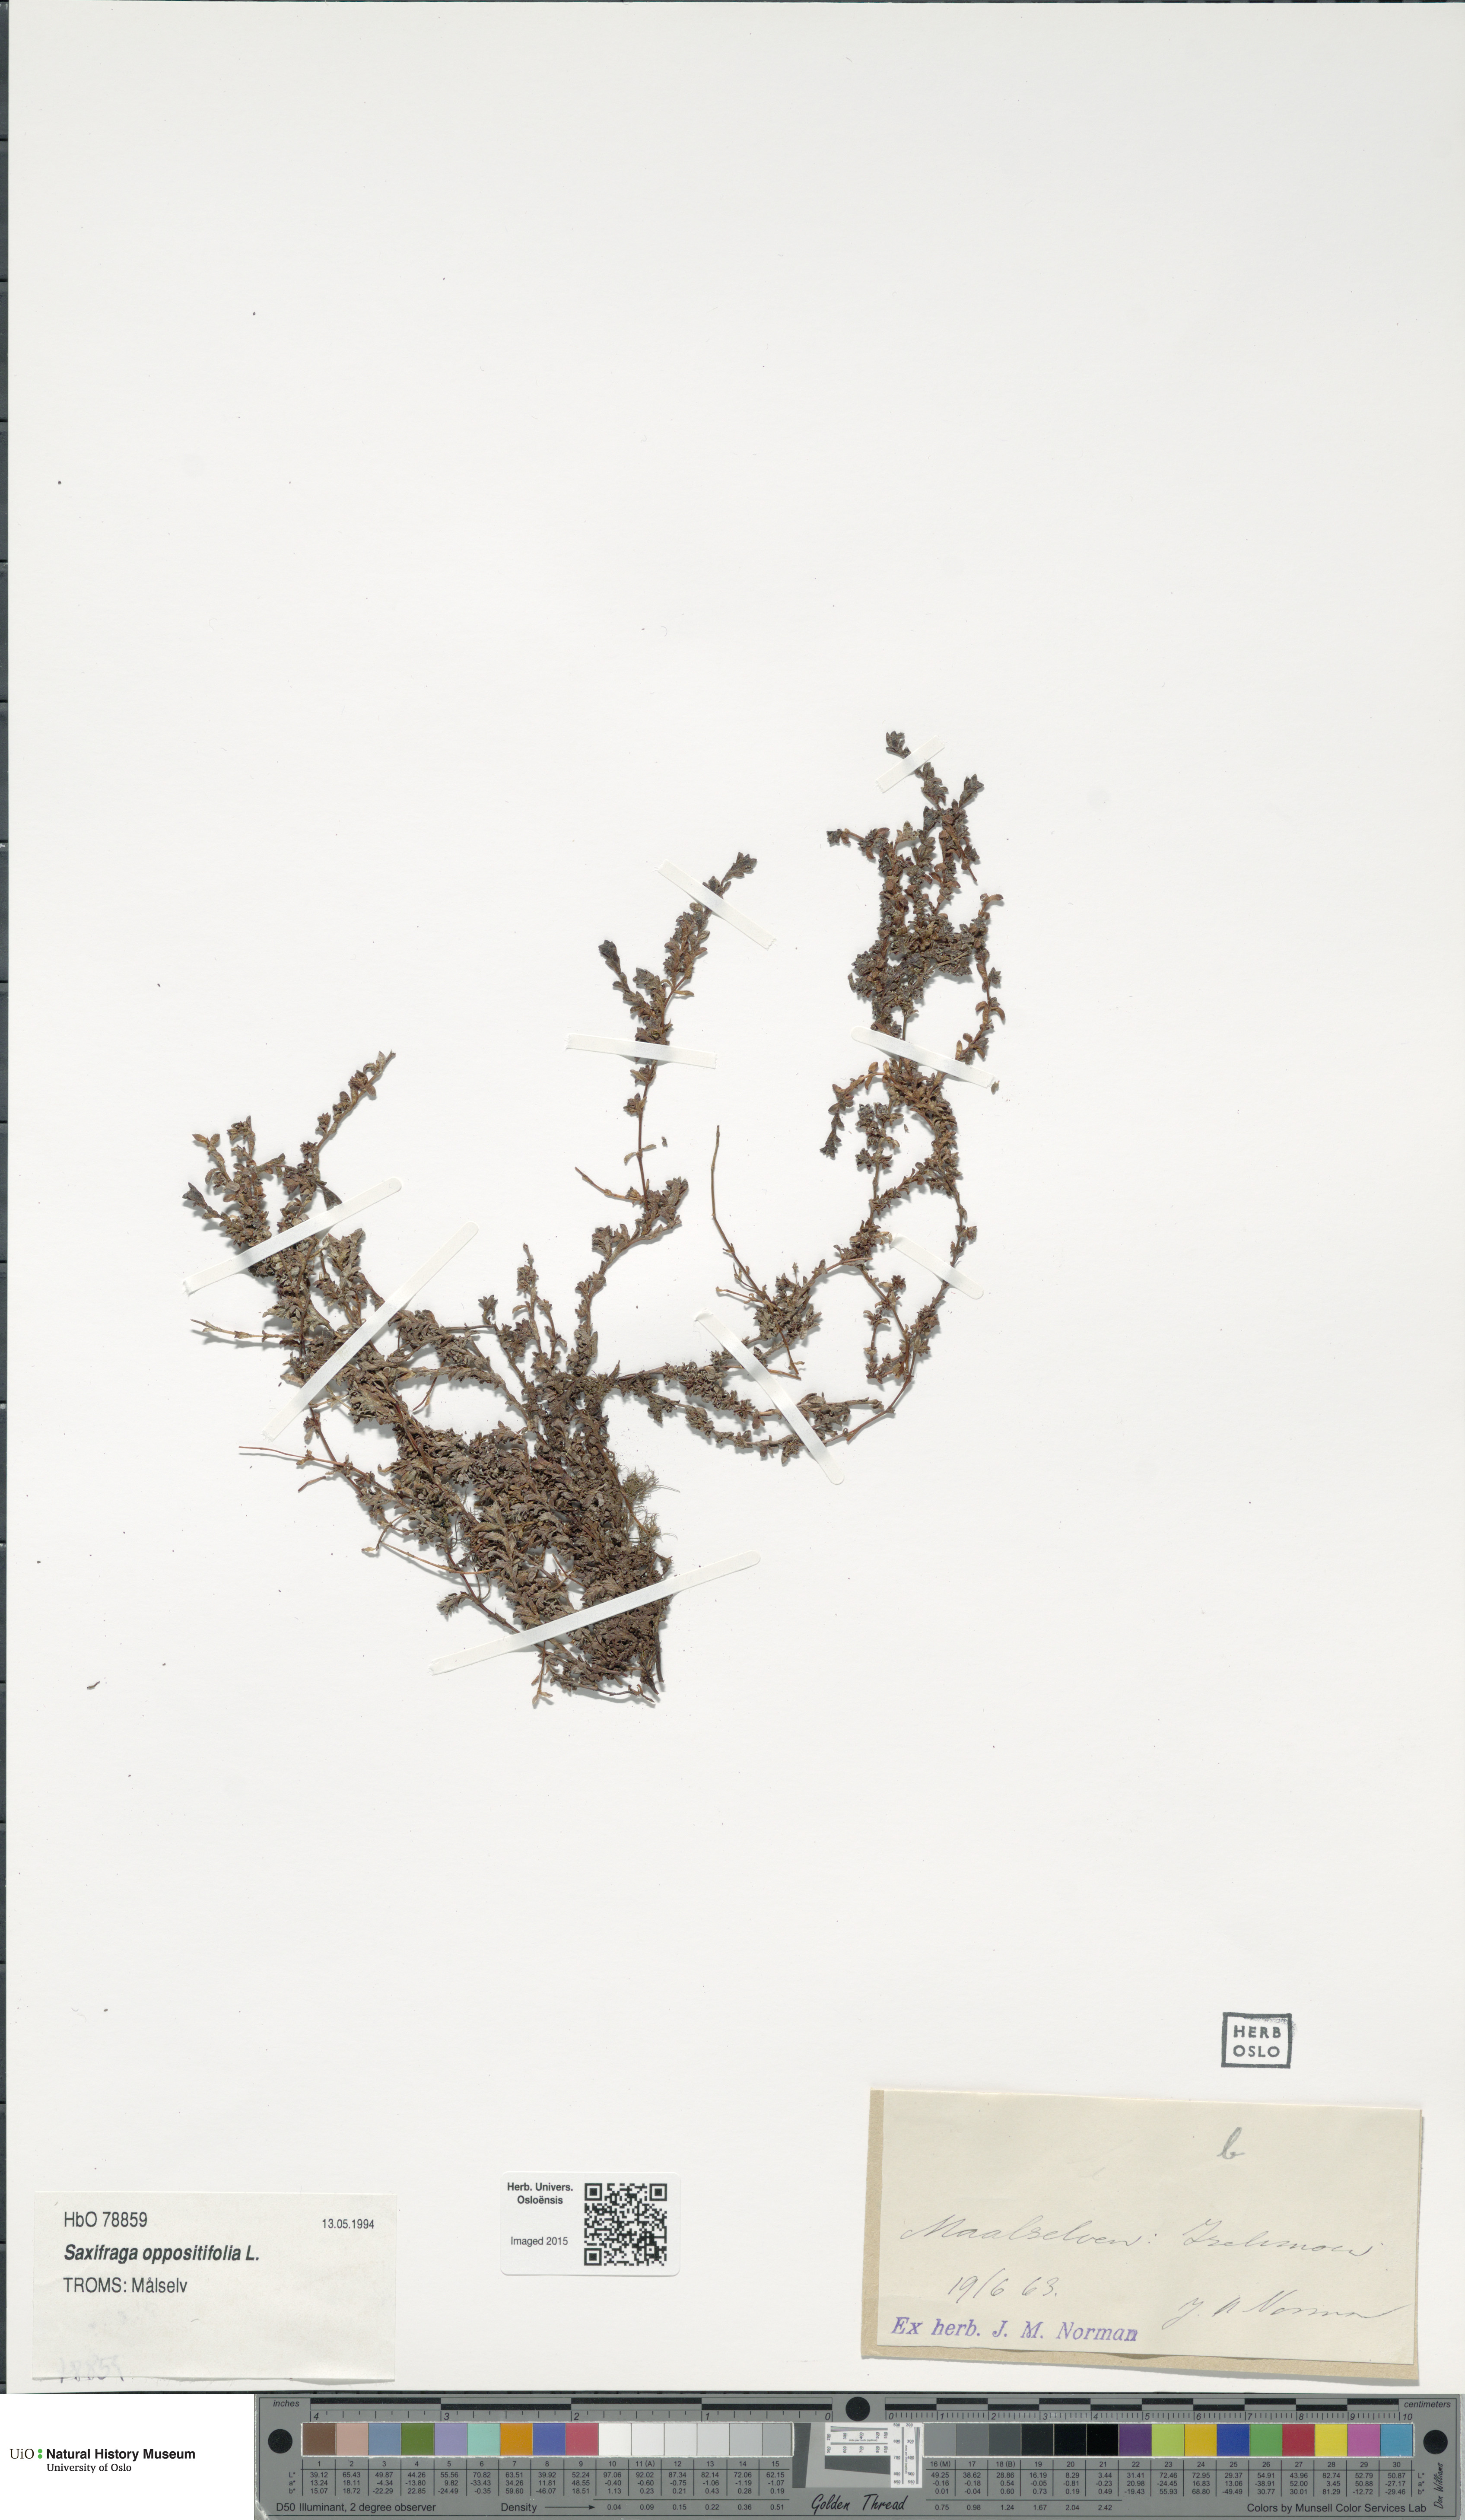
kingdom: Plantae
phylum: Tracheophyta
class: Magnoliopsida
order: Saxifragales
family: Saxifragaceae
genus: Saxifraga
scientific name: Saxifraga oppositifolia
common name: Purple saxifrage
